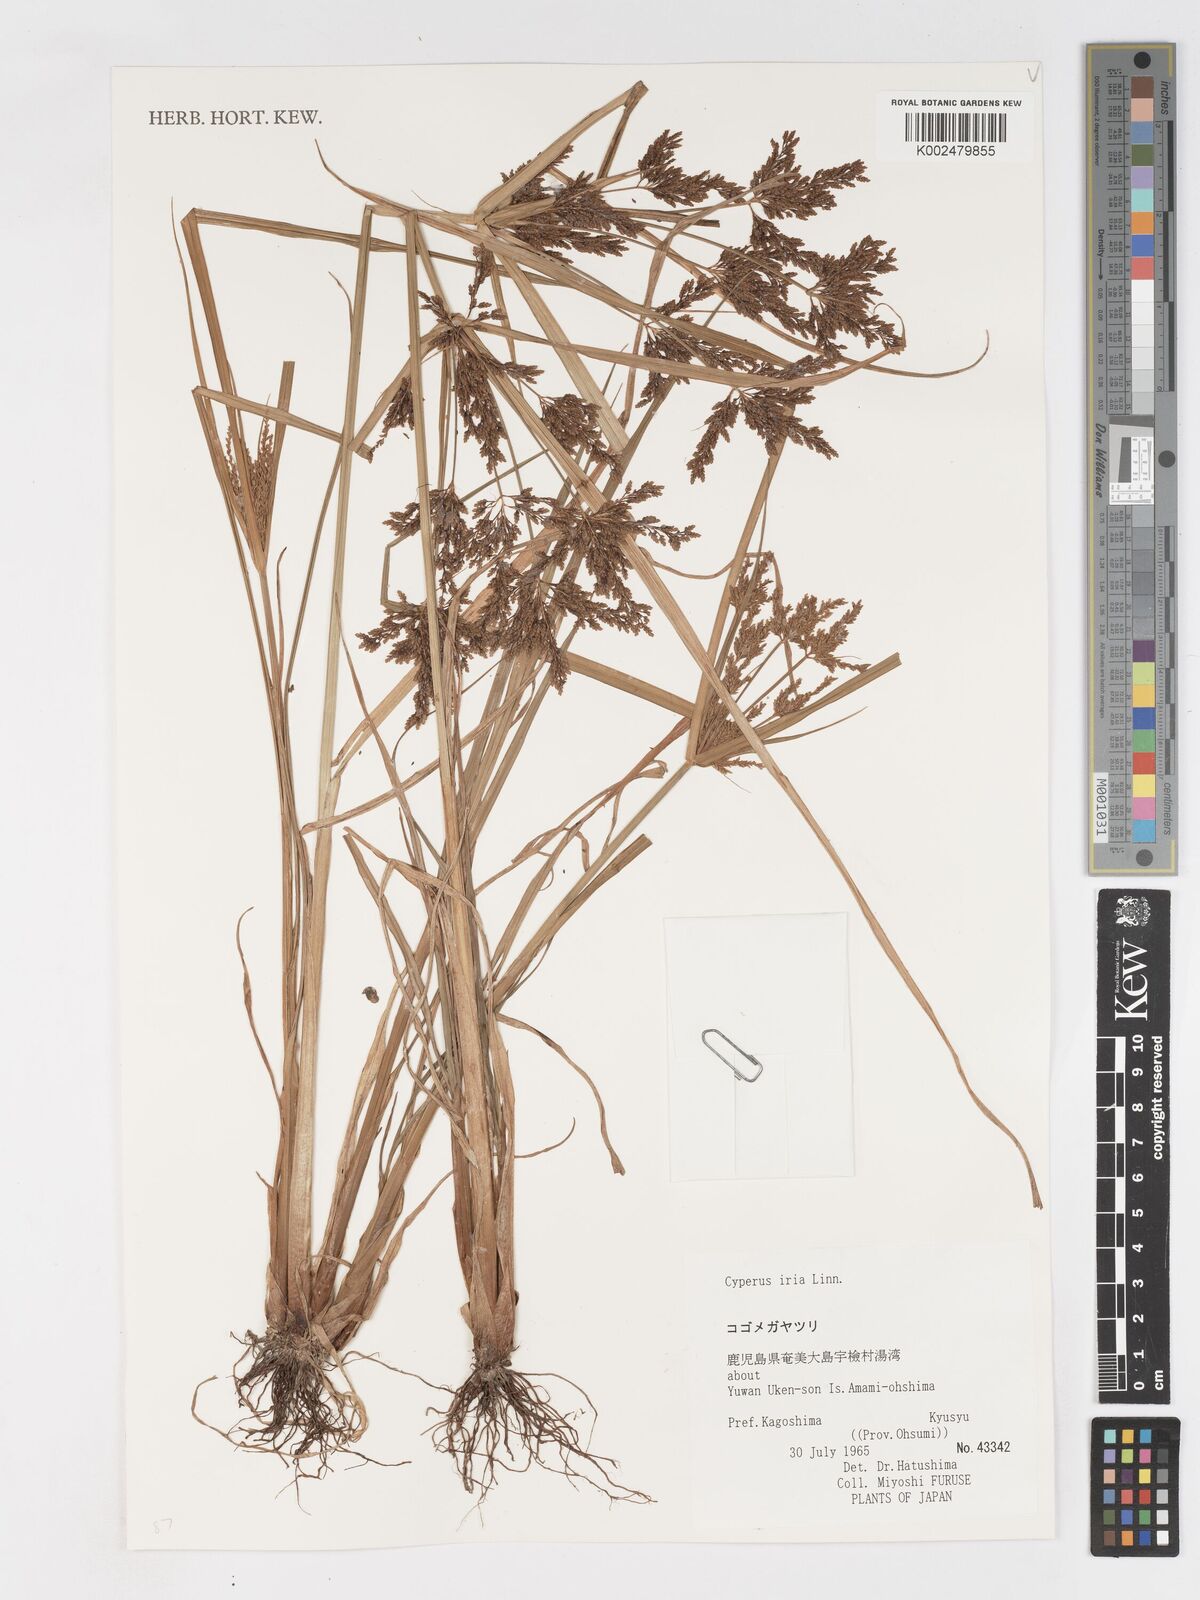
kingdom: Plantae
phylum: Tracheophyta
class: Liliopsida
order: Poales
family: Cyperaceae
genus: Cyperus
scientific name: Cyperus iria
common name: Ricefield flatsedge
